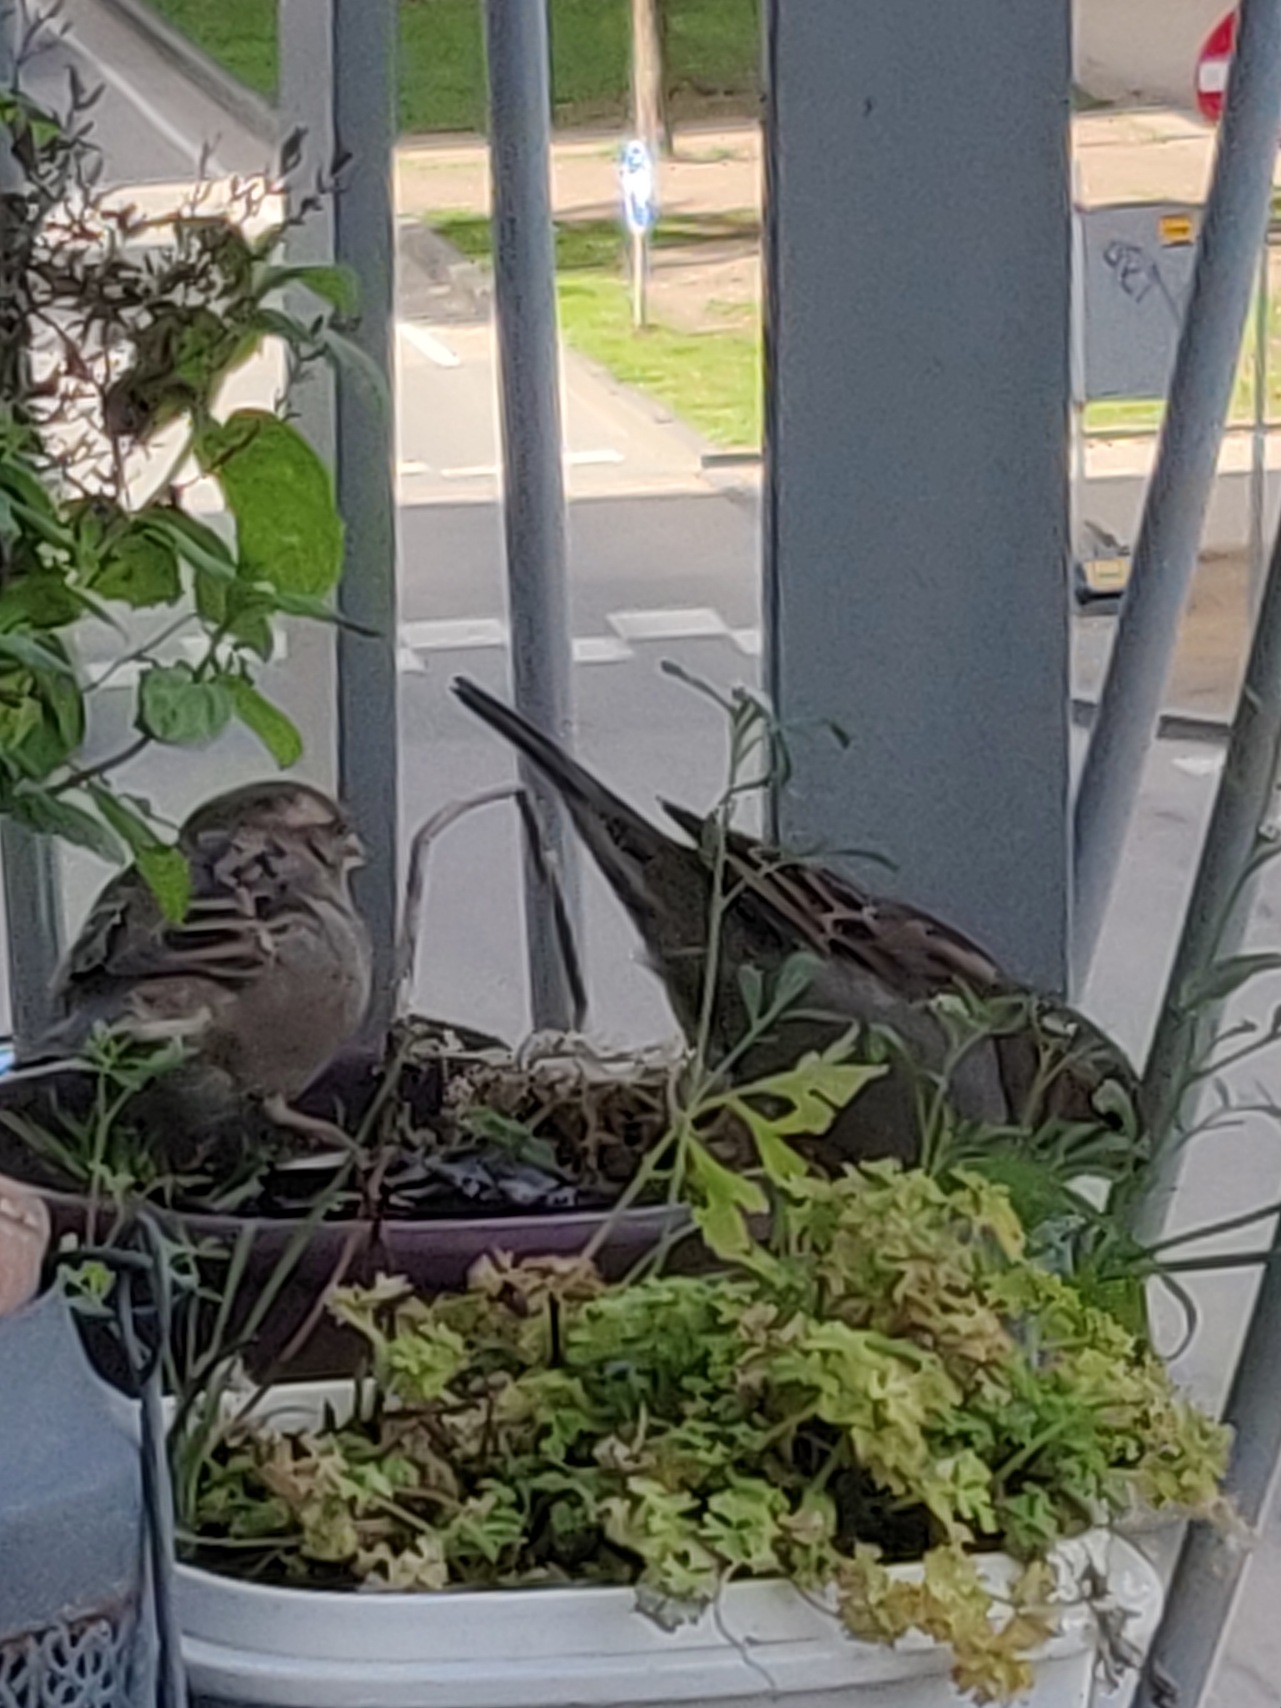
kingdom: Animalia
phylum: Chordata
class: Aves
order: Passeriformes
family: Passeridae
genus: Passer
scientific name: Passer domesticus
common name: Gråspurv
